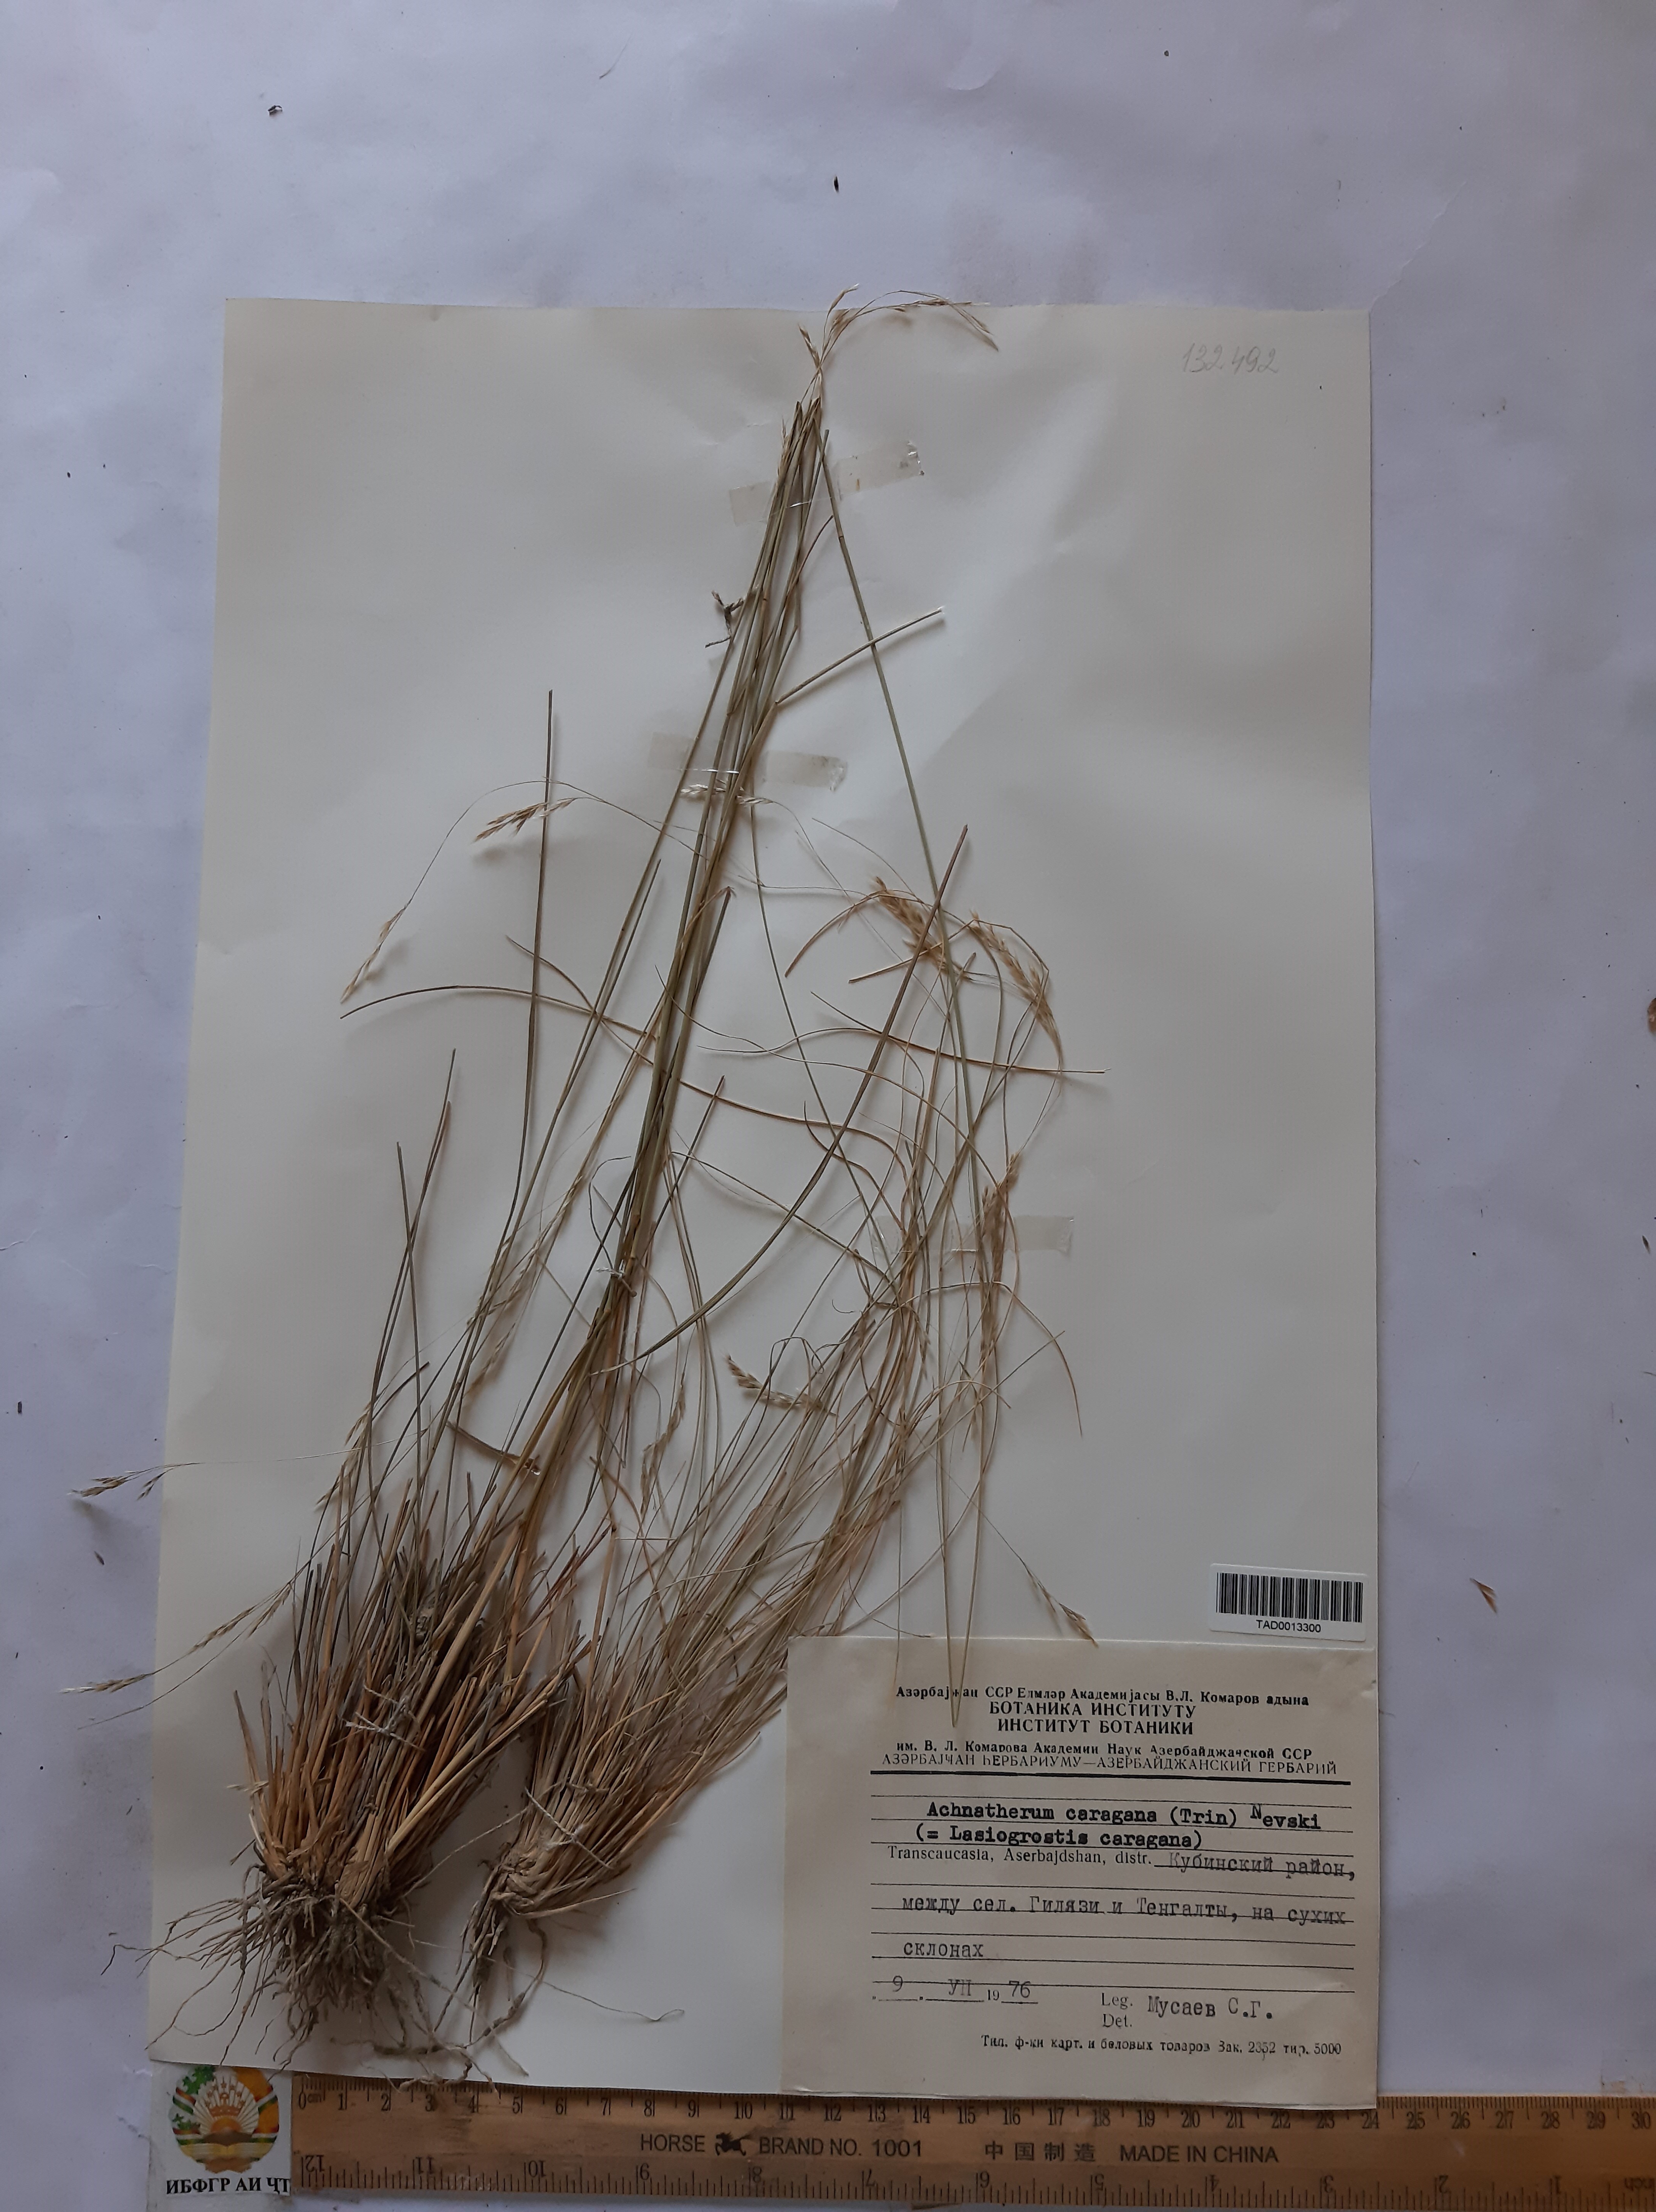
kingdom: Plantae
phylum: Tracheophyta
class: Liliopsida
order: Poales
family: Poaceae
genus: Stipa
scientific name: Stipa conferta
